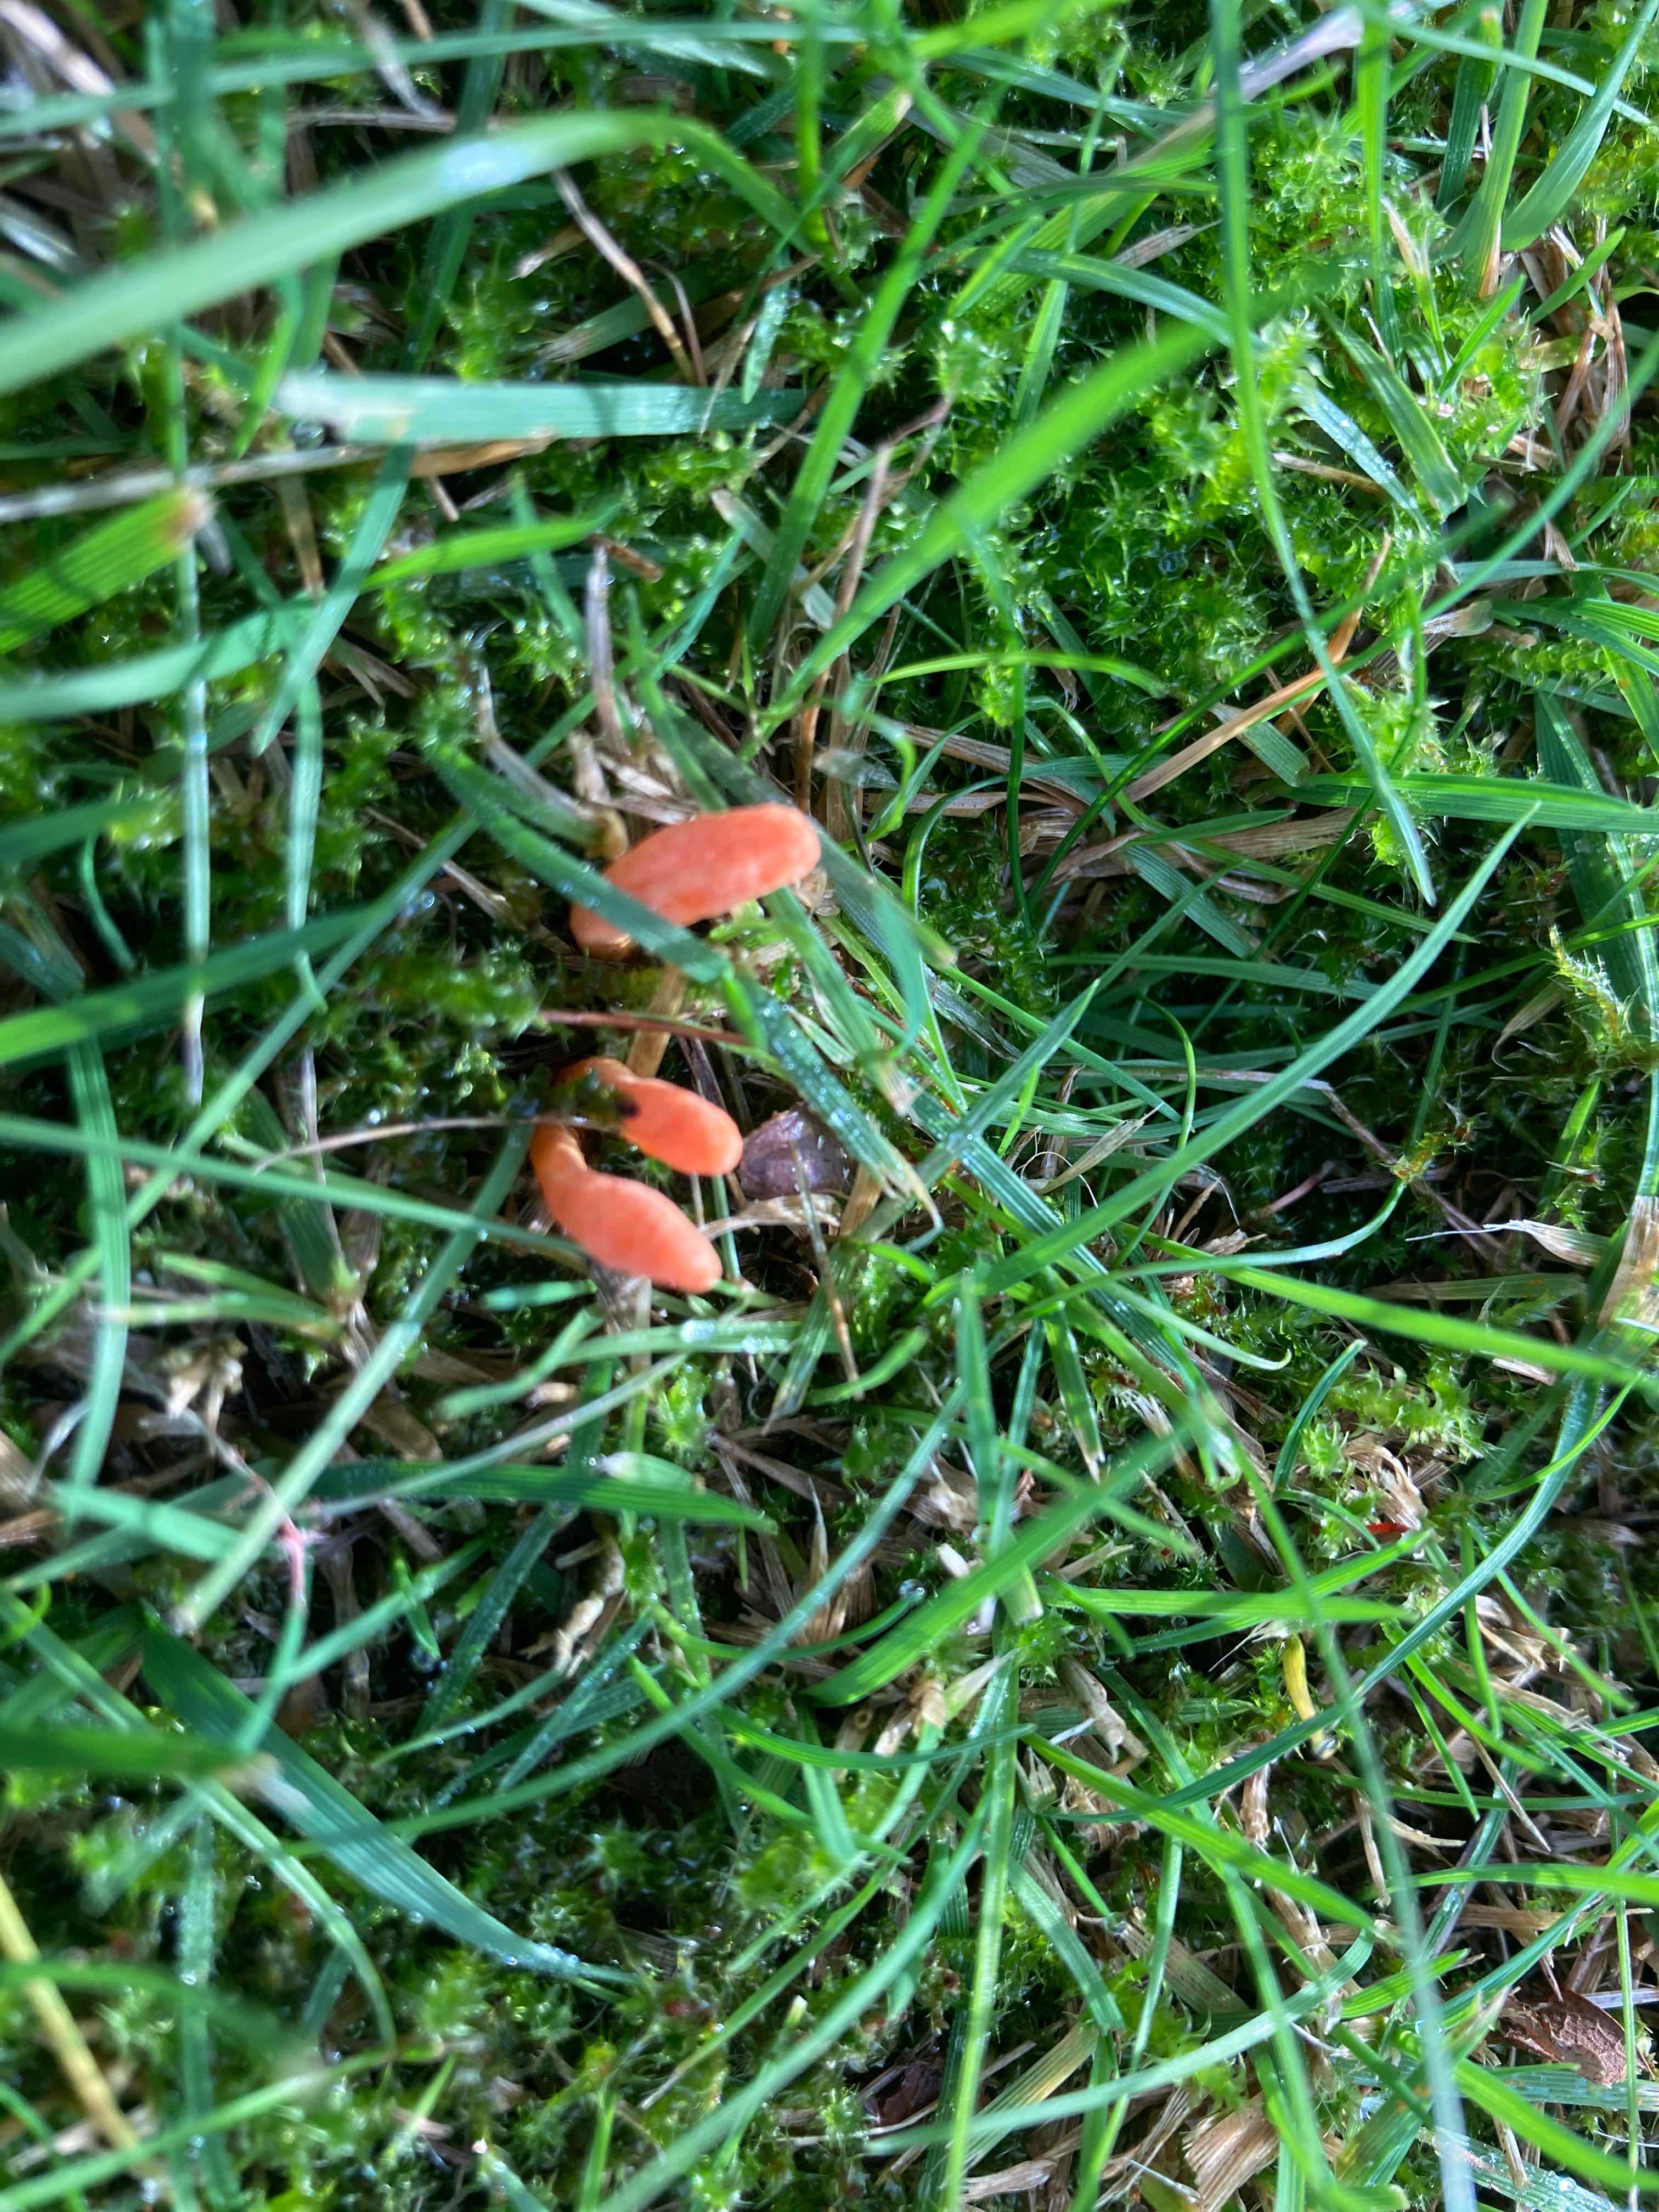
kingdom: Fungi
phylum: Ascomycota
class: Sordariomycetes
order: Hypocreales
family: Cordycipitaceae
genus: Cordyceps
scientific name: Cordyceps militaris
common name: puppe-snyltekølle
